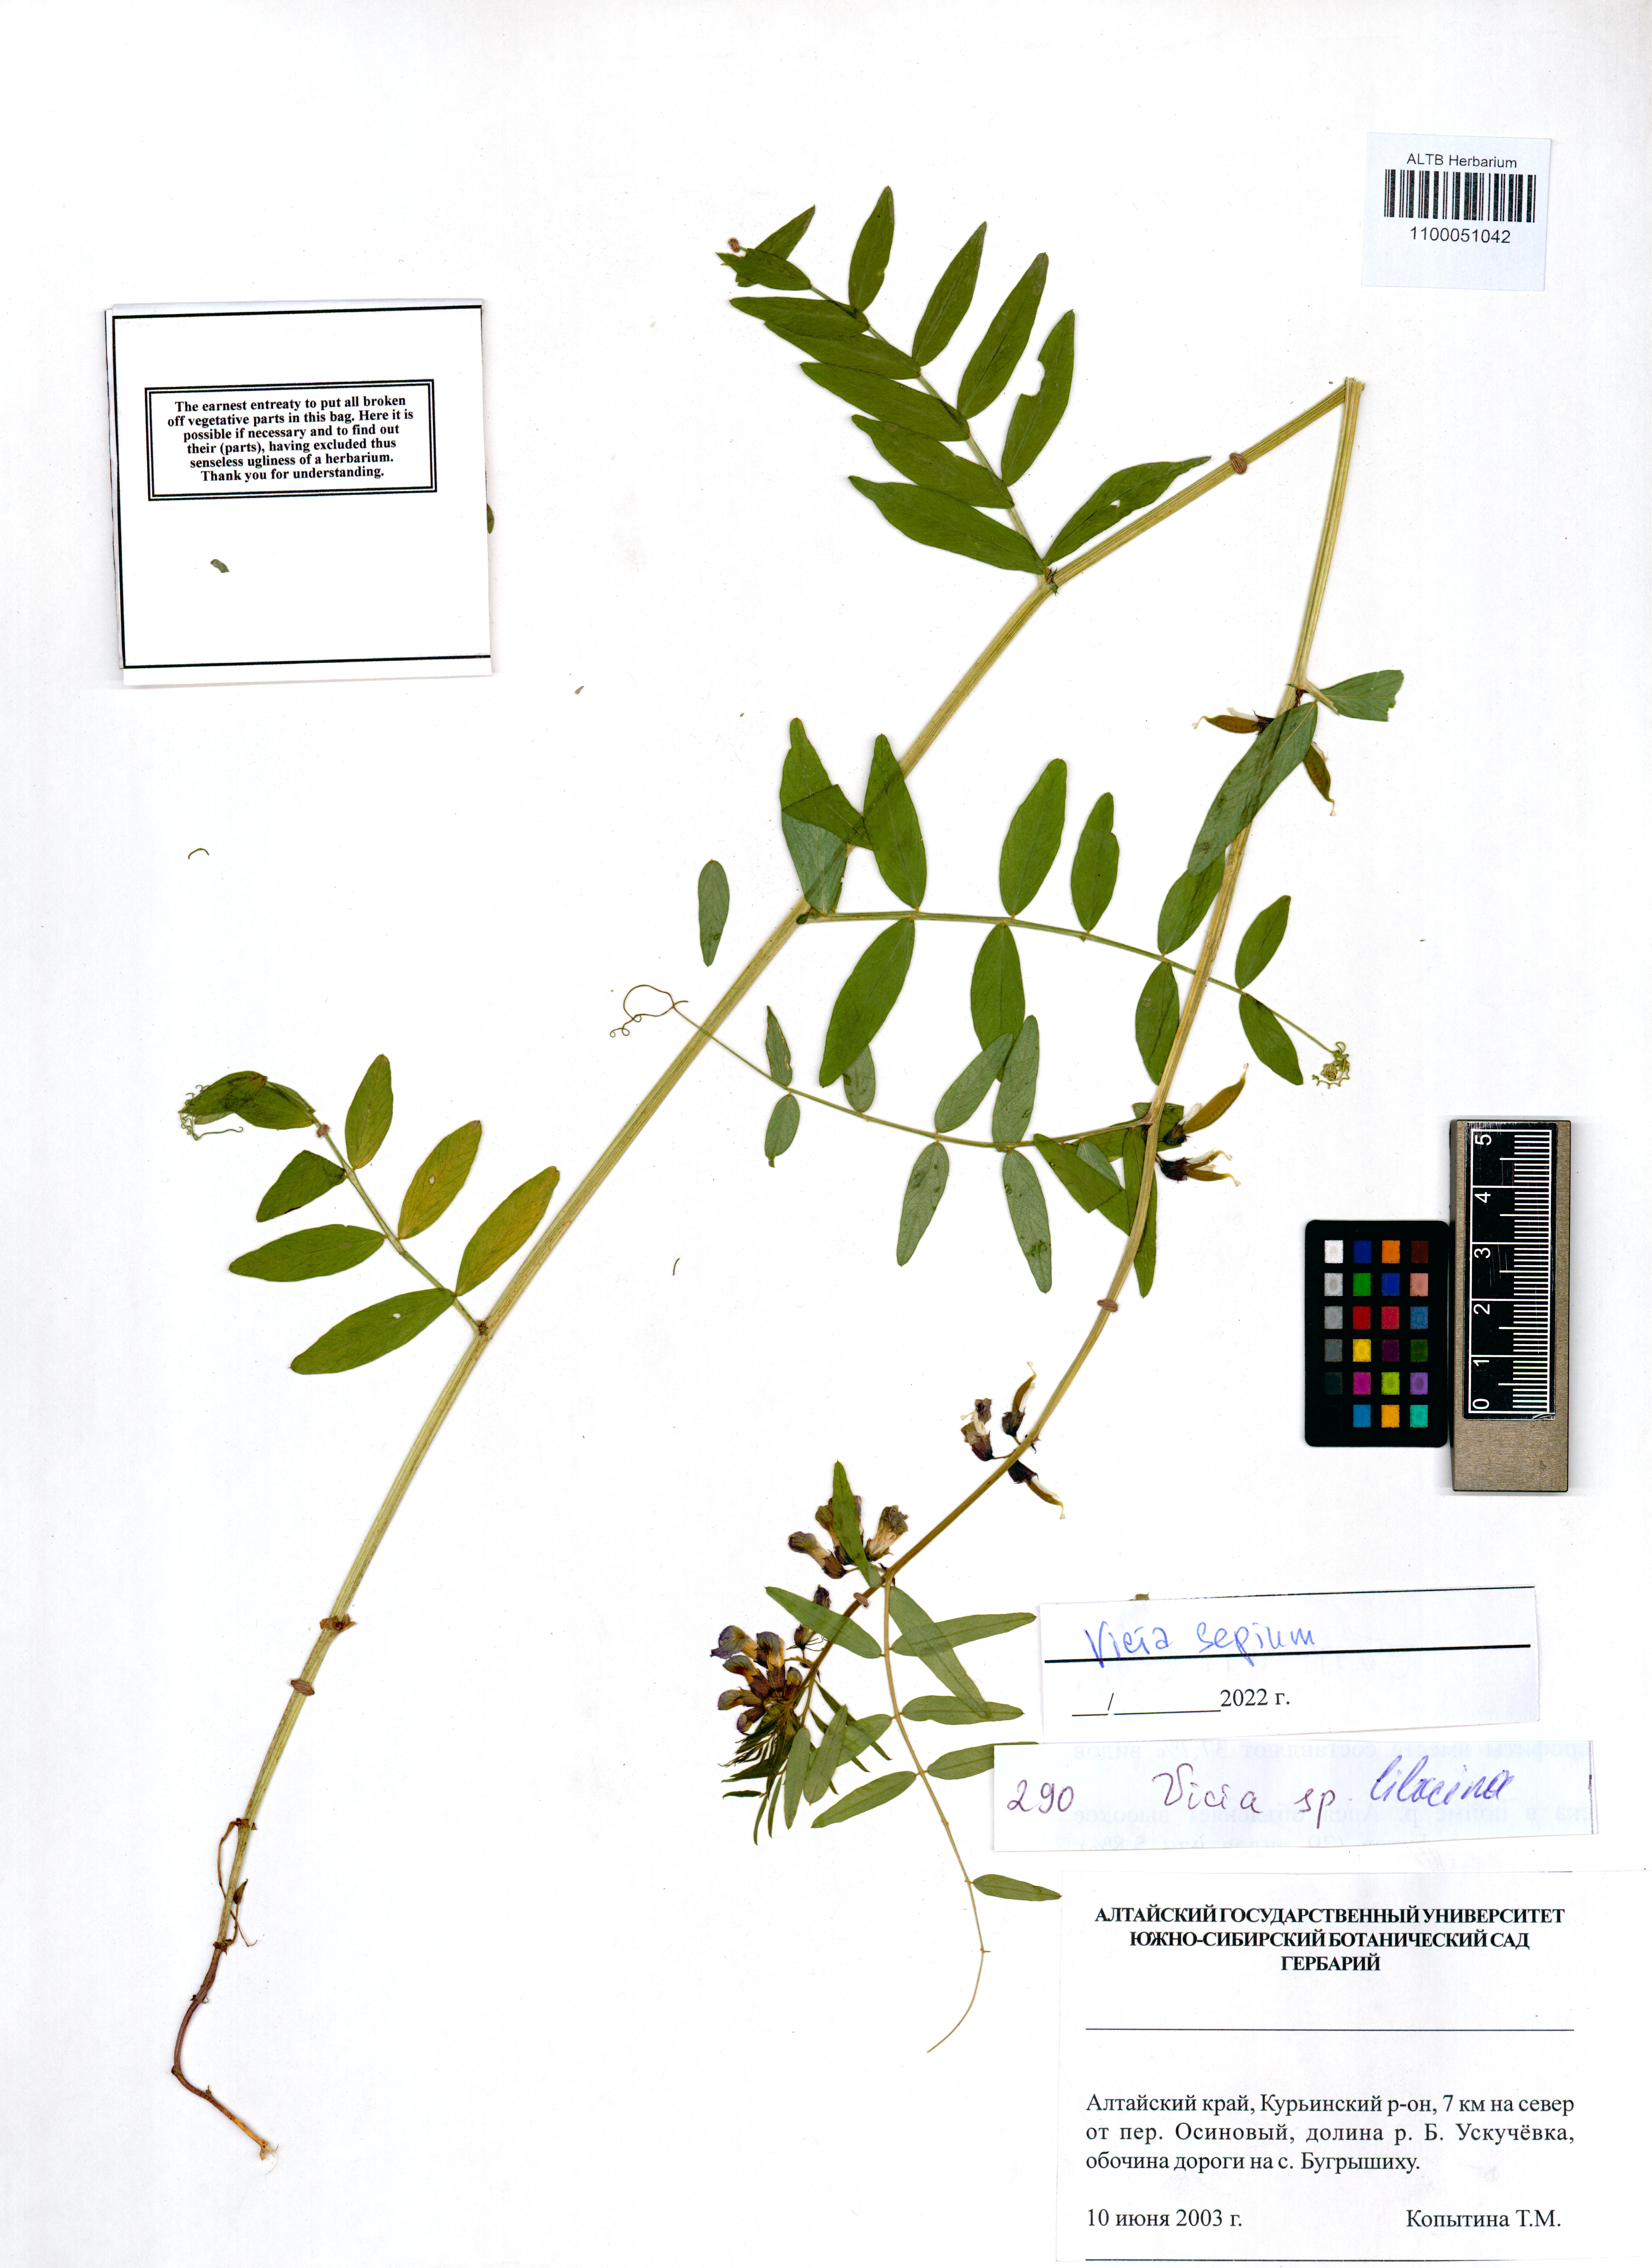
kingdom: Plantae
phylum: Tracheophyta
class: Magnoliopsida
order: Fabales
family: Fabaceae
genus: Vicia
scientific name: Vicia sepium
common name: Bush vetch
